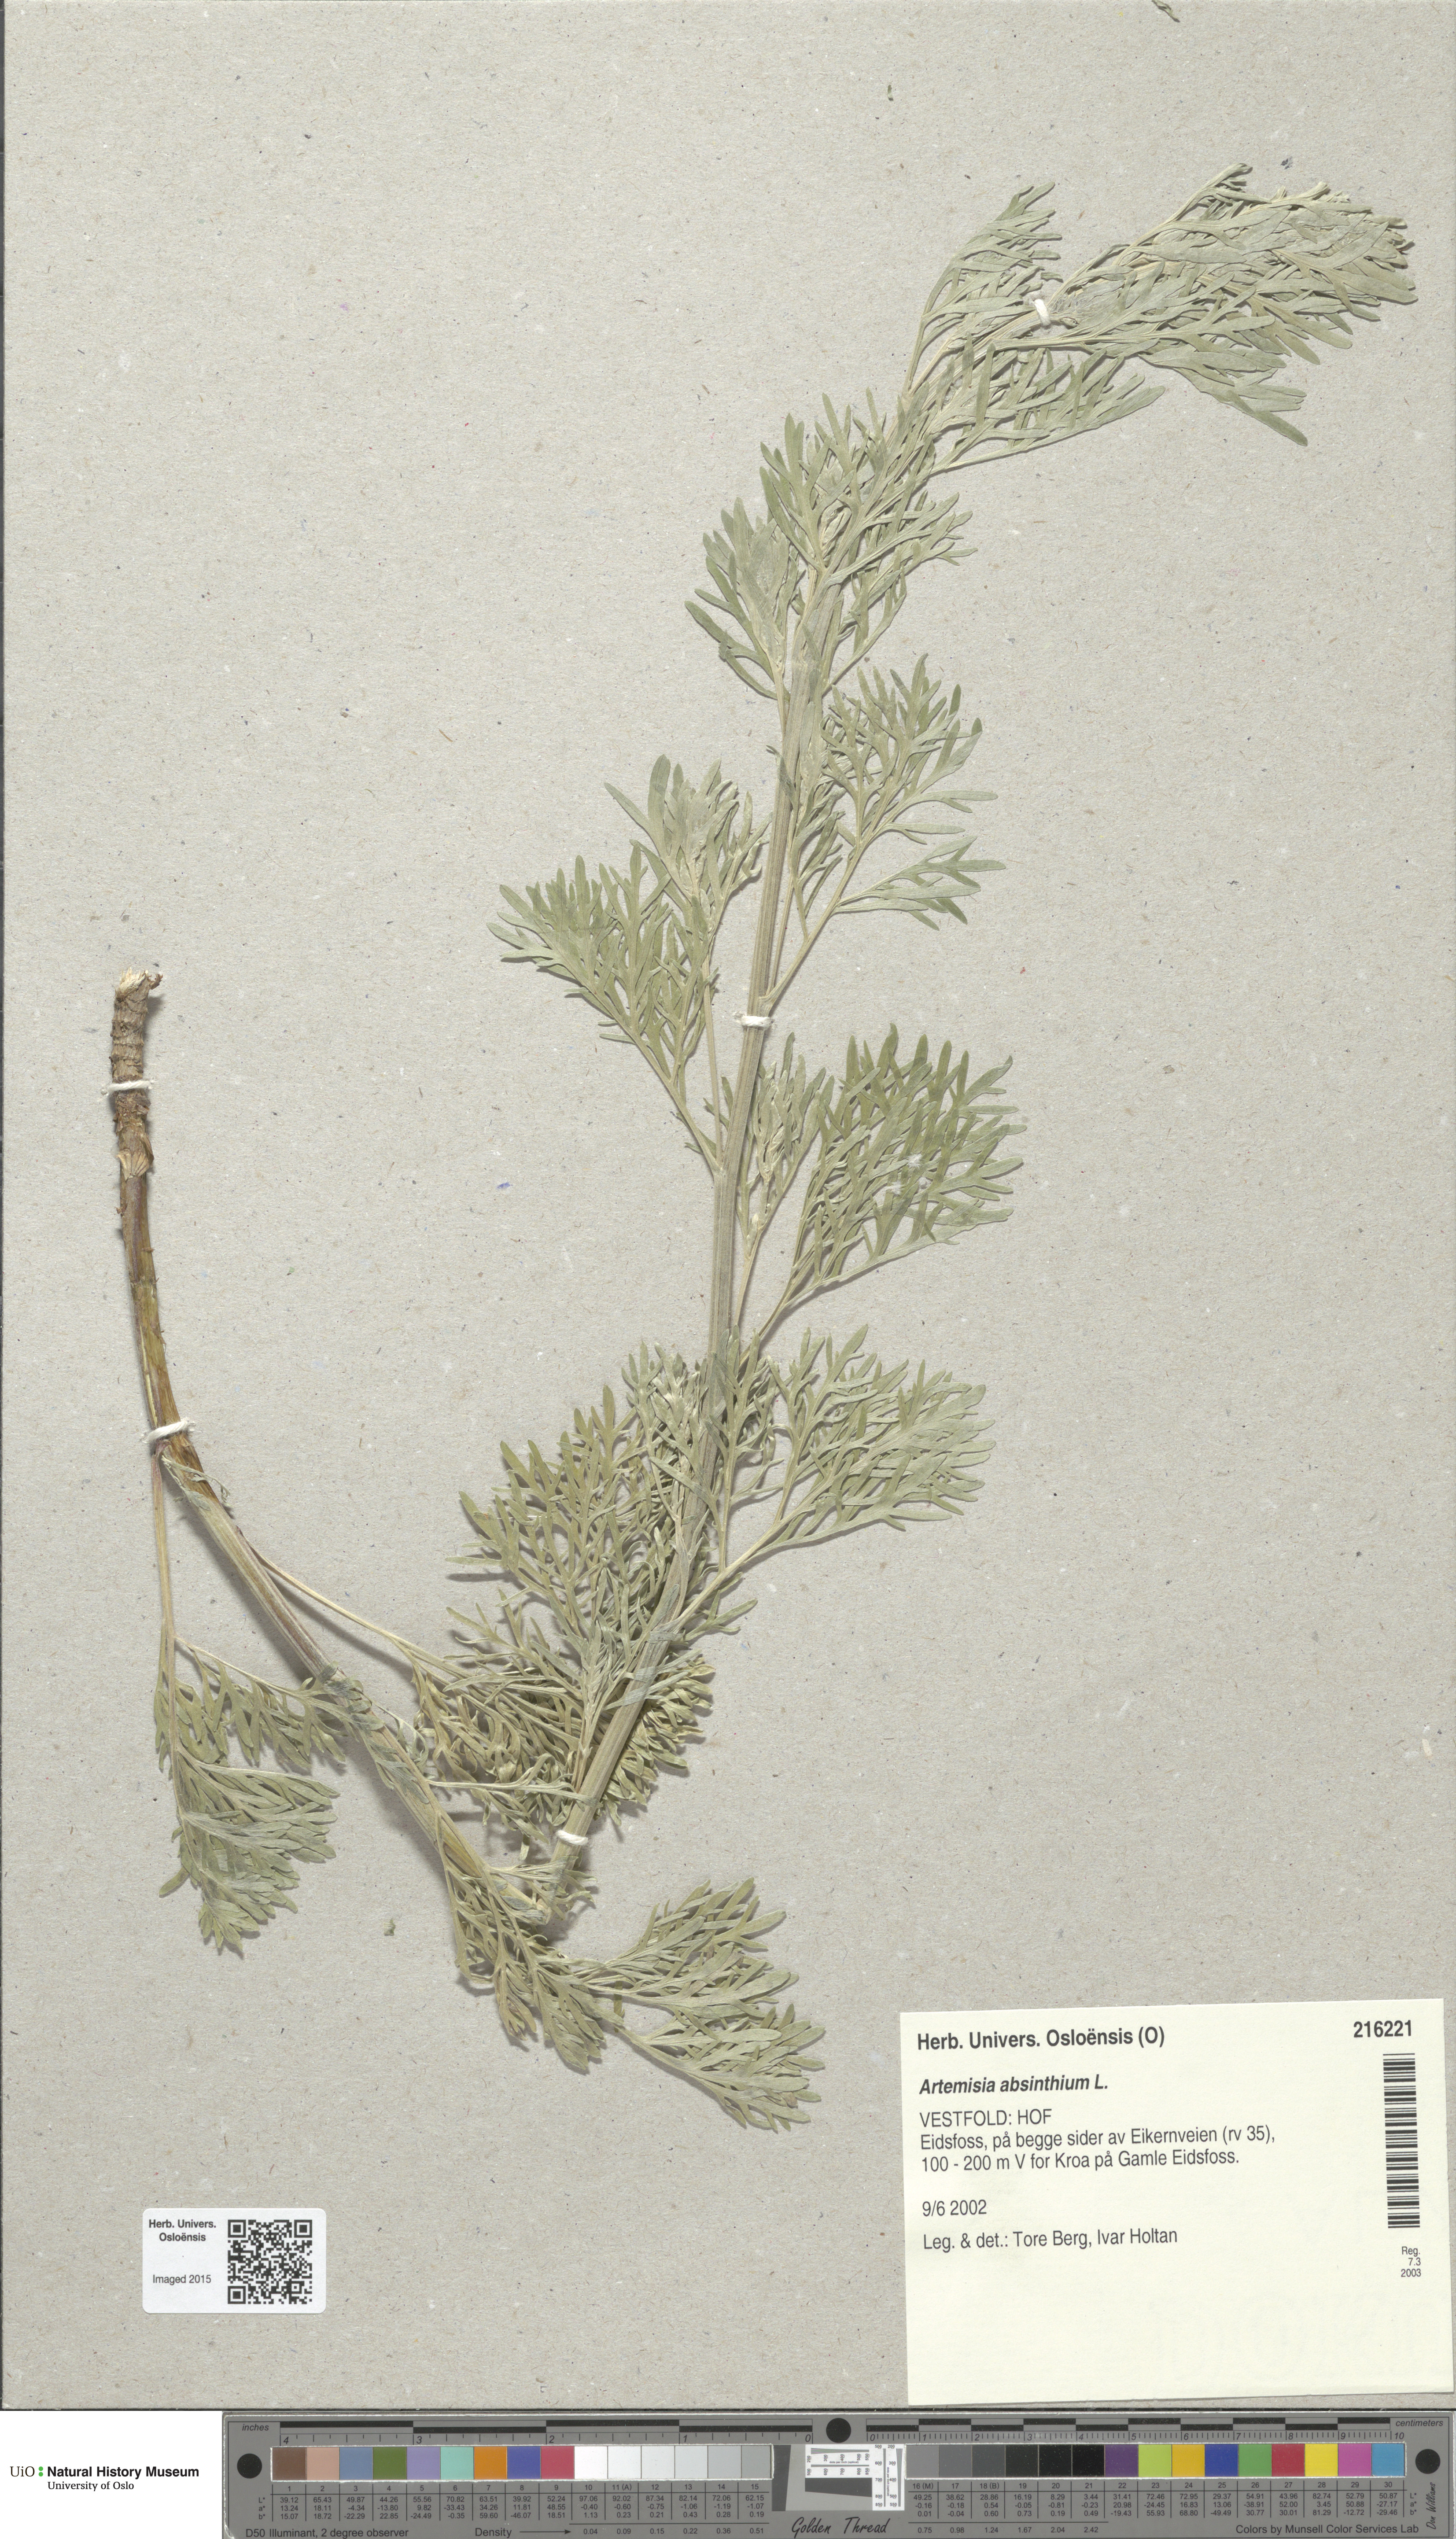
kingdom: Plantae
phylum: Tracheophyta
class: Magnoliopsida
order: Asterales
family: Asteraceae
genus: Artemisia
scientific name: Artemisia absinthium
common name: Wormwood
